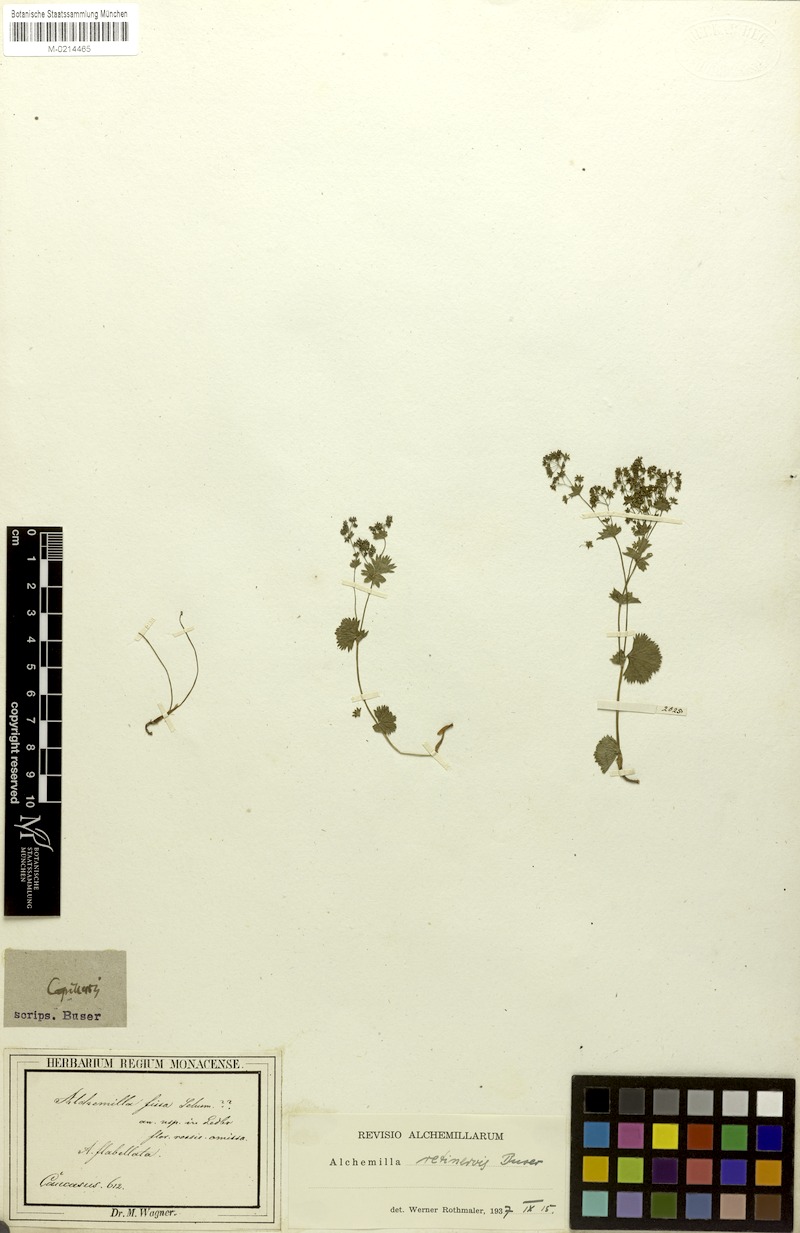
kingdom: Plantae
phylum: Tracheophyta
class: Magnoliopsida
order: Rosales
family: Rosaceae
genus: Alchemilla
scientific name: Alchemilla retinervis
